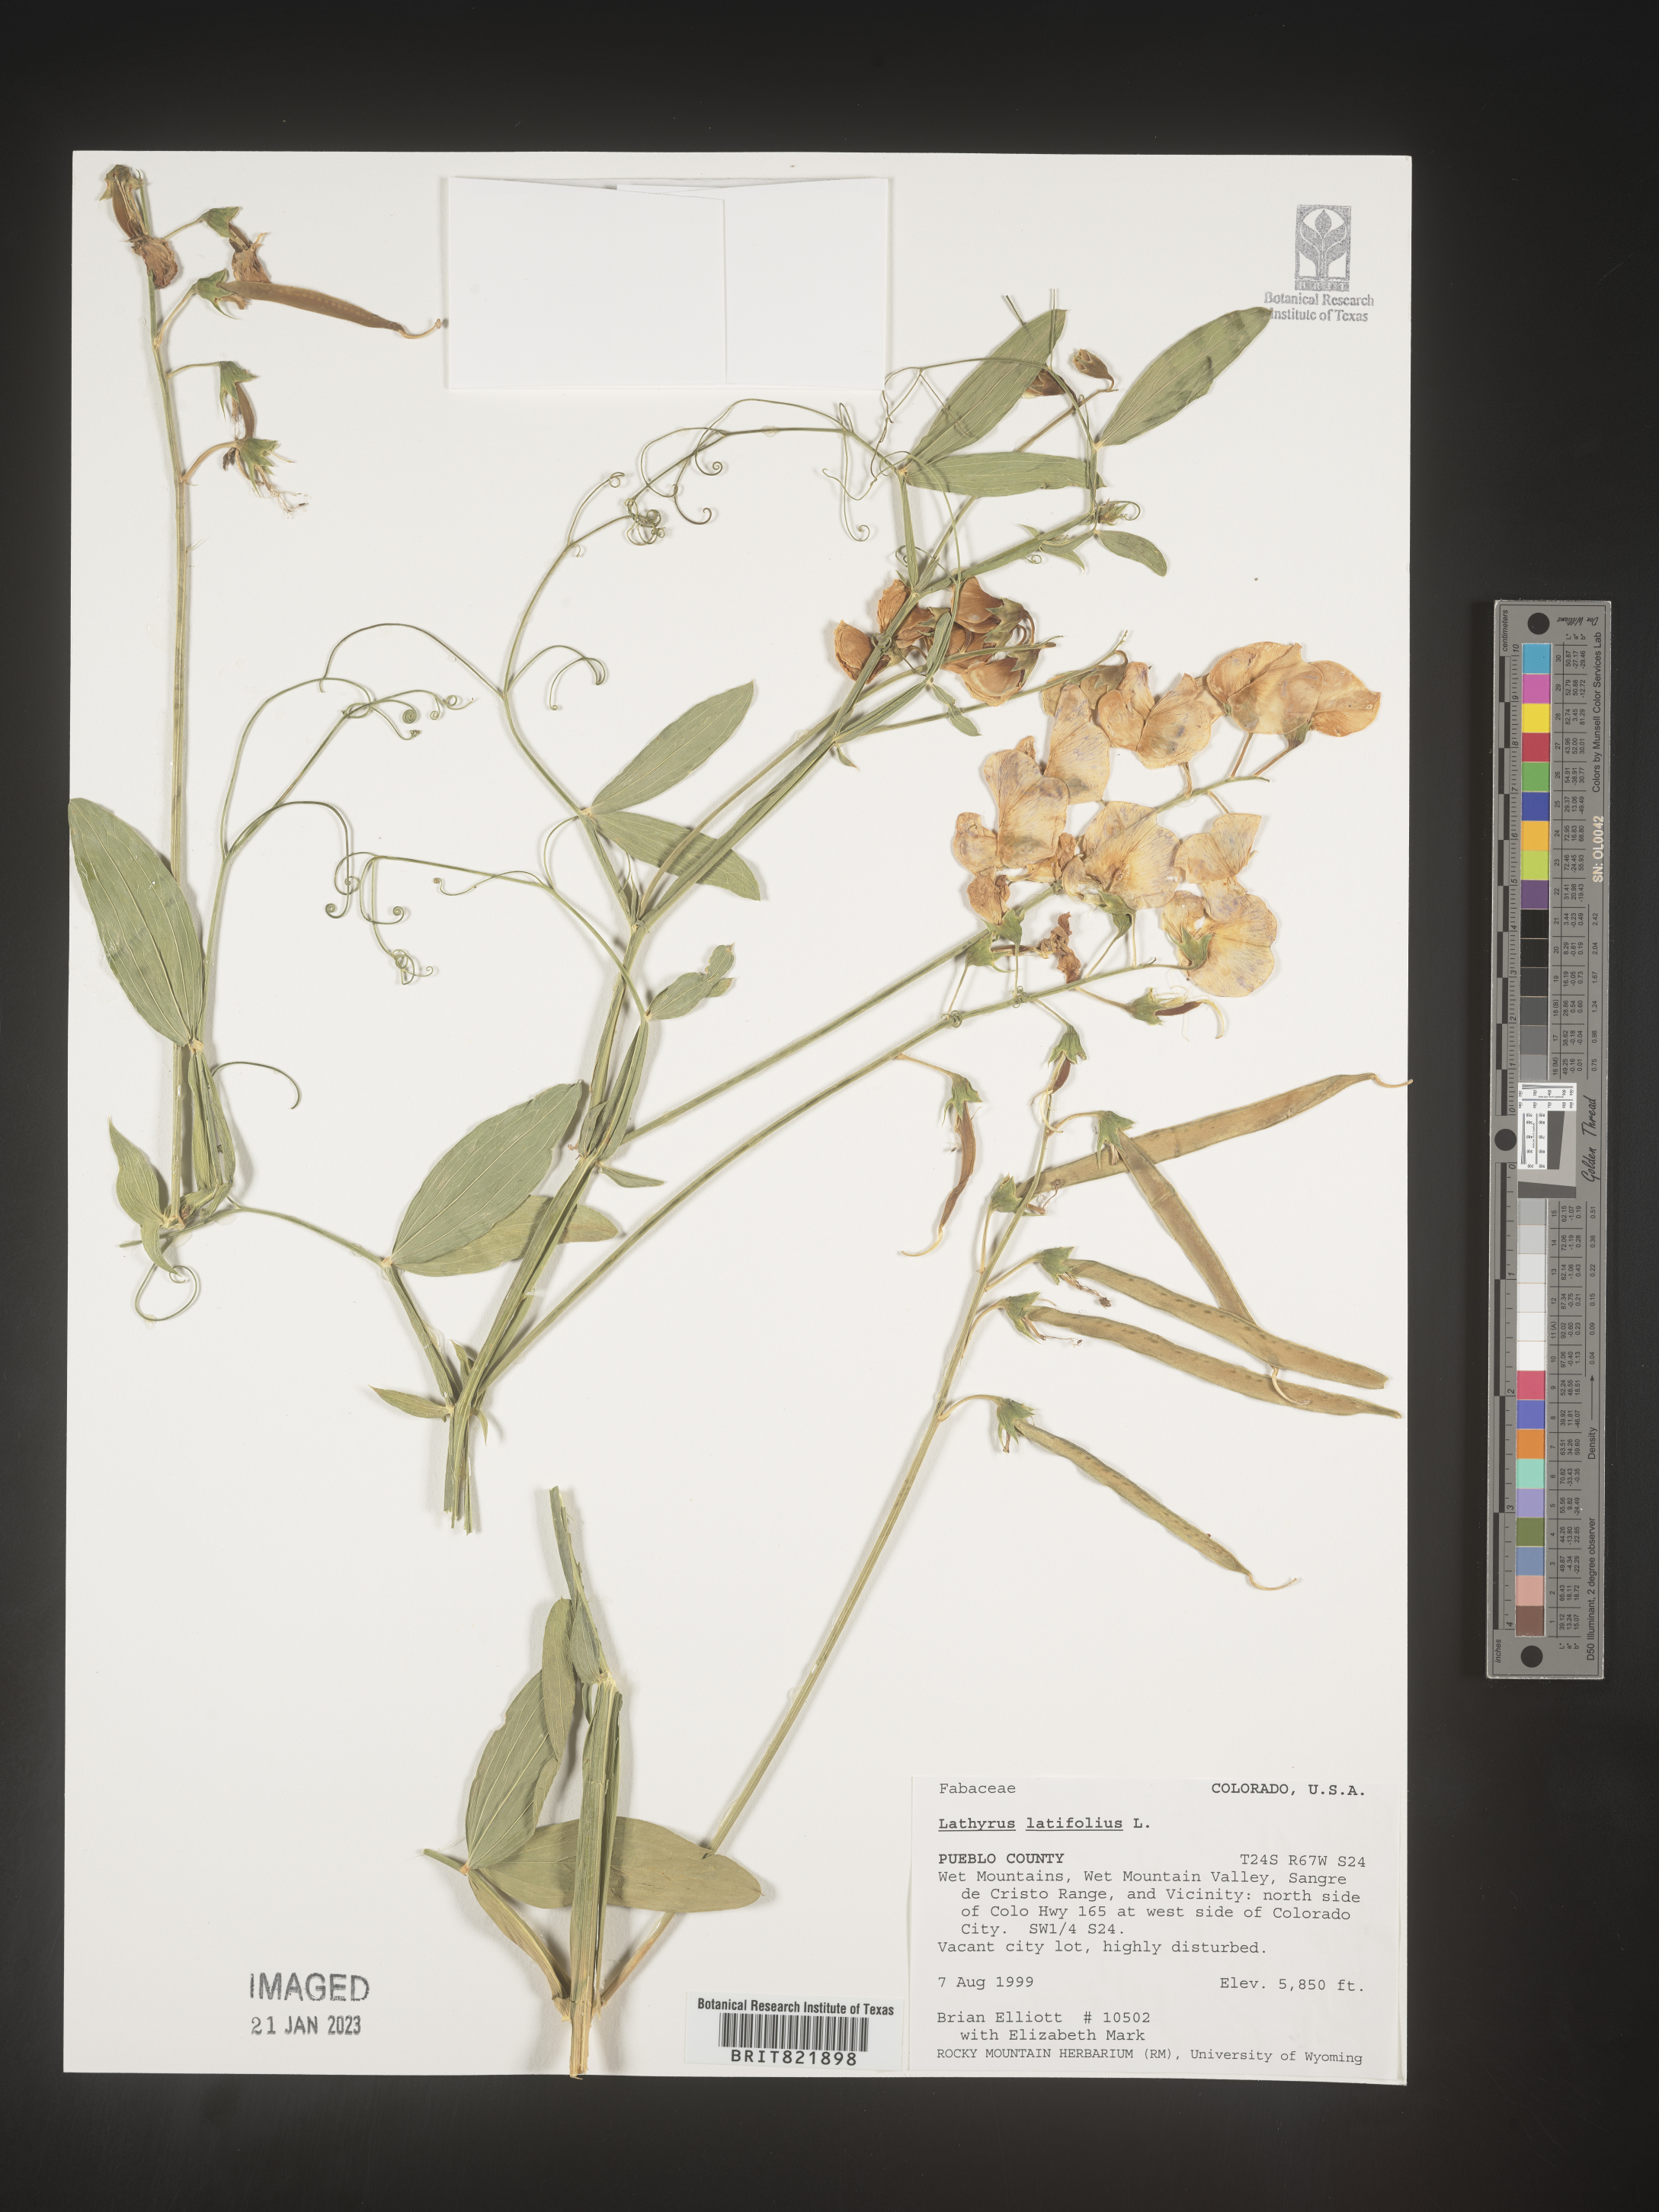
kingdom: Plantae
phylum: Tracheophyta
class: Magnoliopsida
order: Fabales
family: Fabaceae
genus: Lathyrus
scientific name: Lathyrus latifolius
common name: Perennial pea
